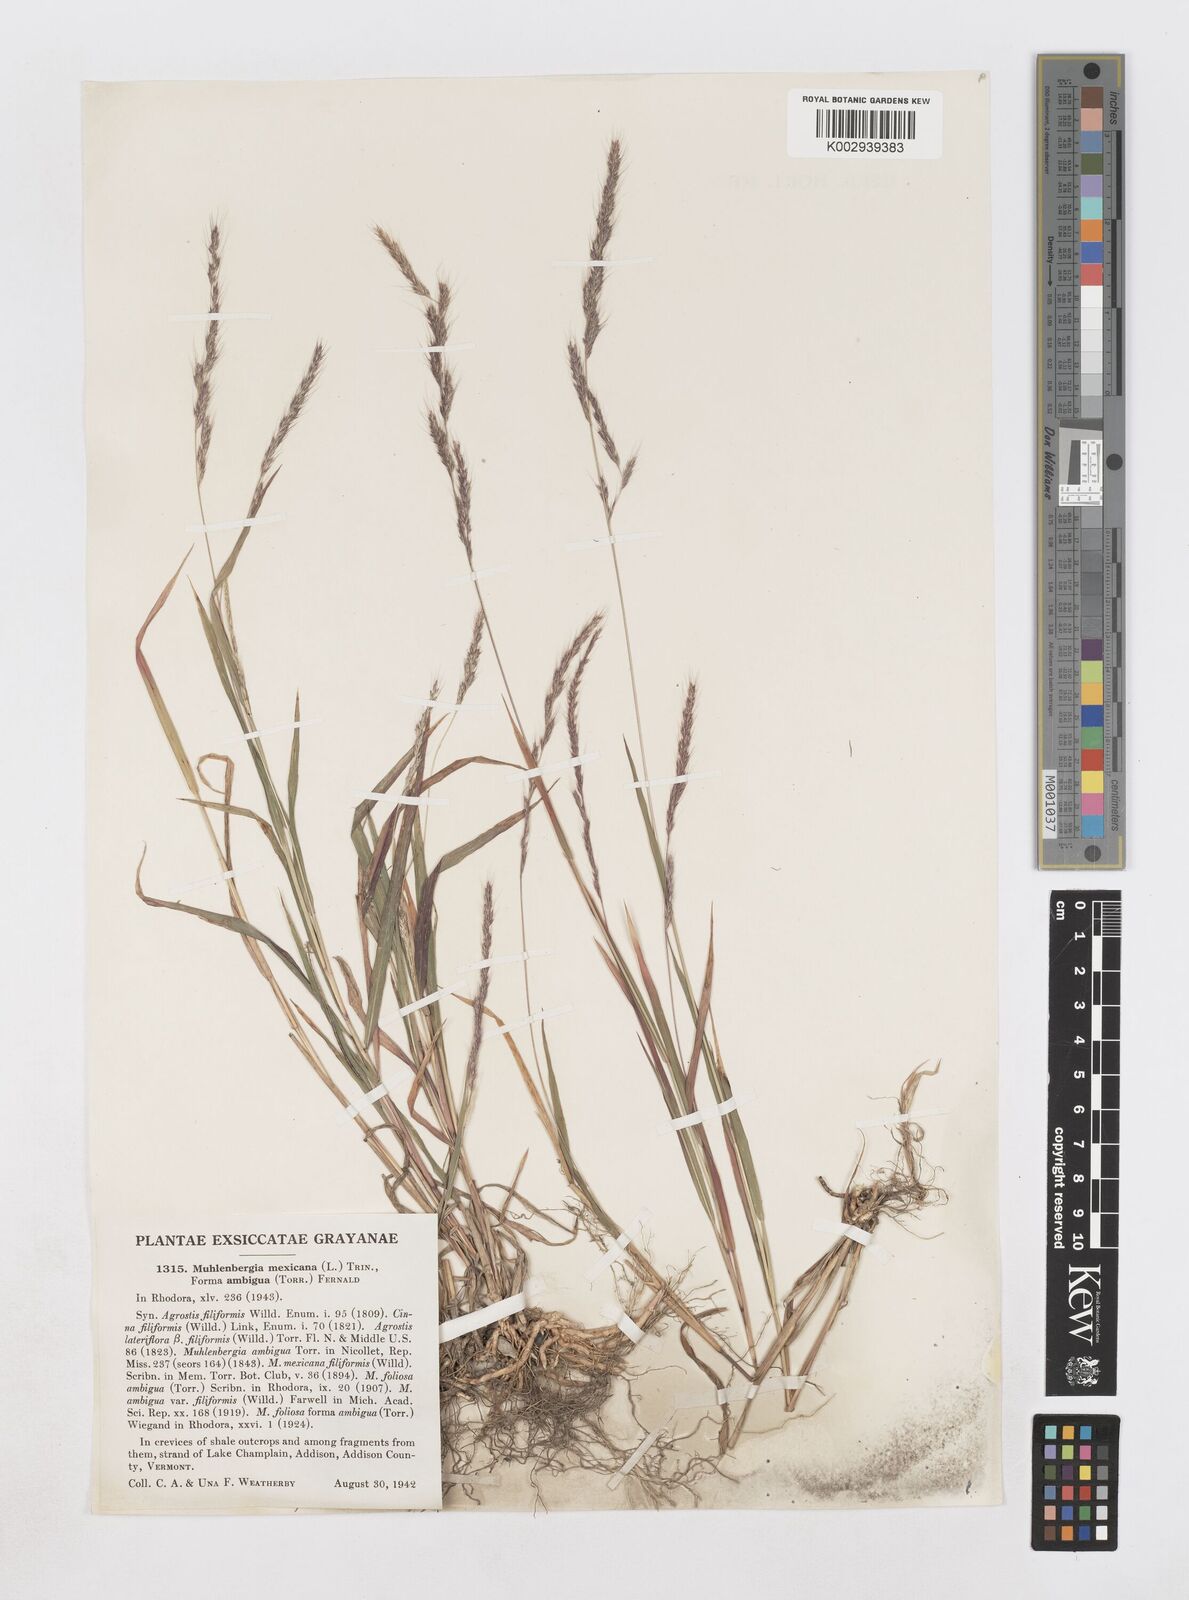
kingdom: Plantae
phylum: Tracheophyta
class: Liliopsida
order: Poales
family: Poaceae
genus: Muhlenbergia
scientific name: Muhlenbergia mexicana
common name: Mexican muhly
